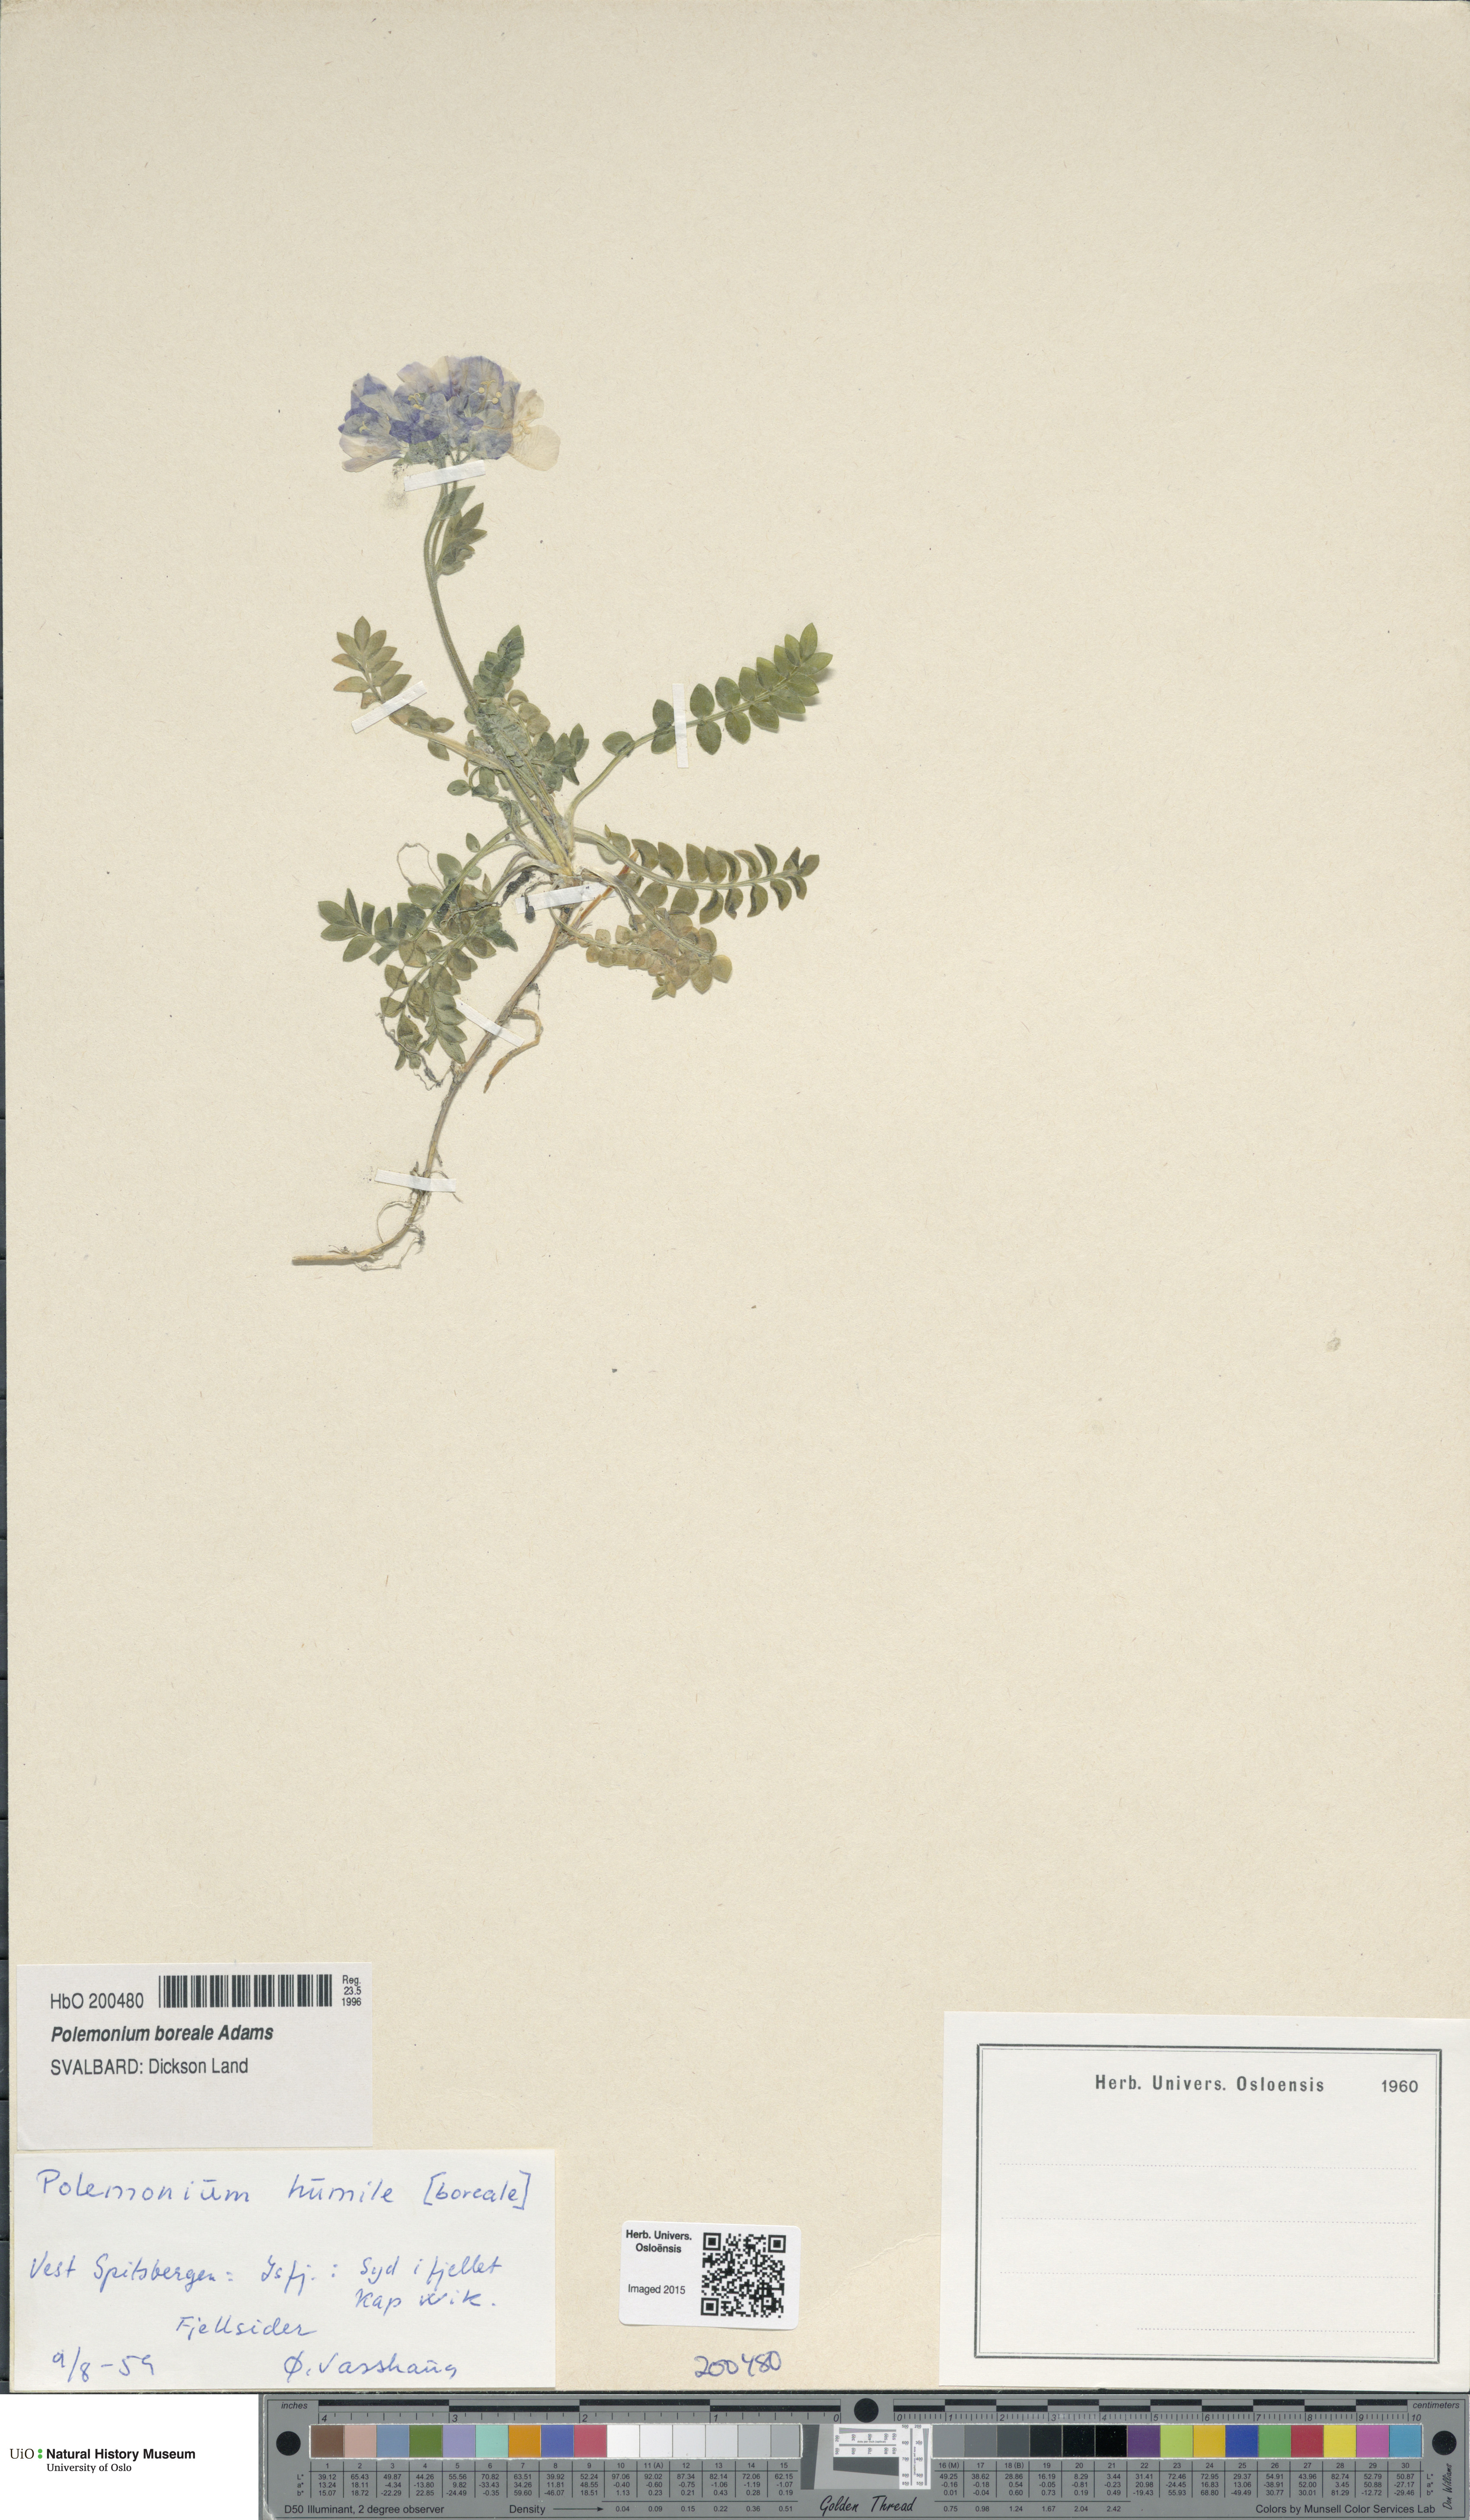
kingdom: Plantae
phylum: Tracheophyta
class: Magnoliopsida
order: Ericales
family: Polemoniaceae
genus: Polemonium
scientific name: Polemonium boreale
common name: Boreal jacob's-ladder
